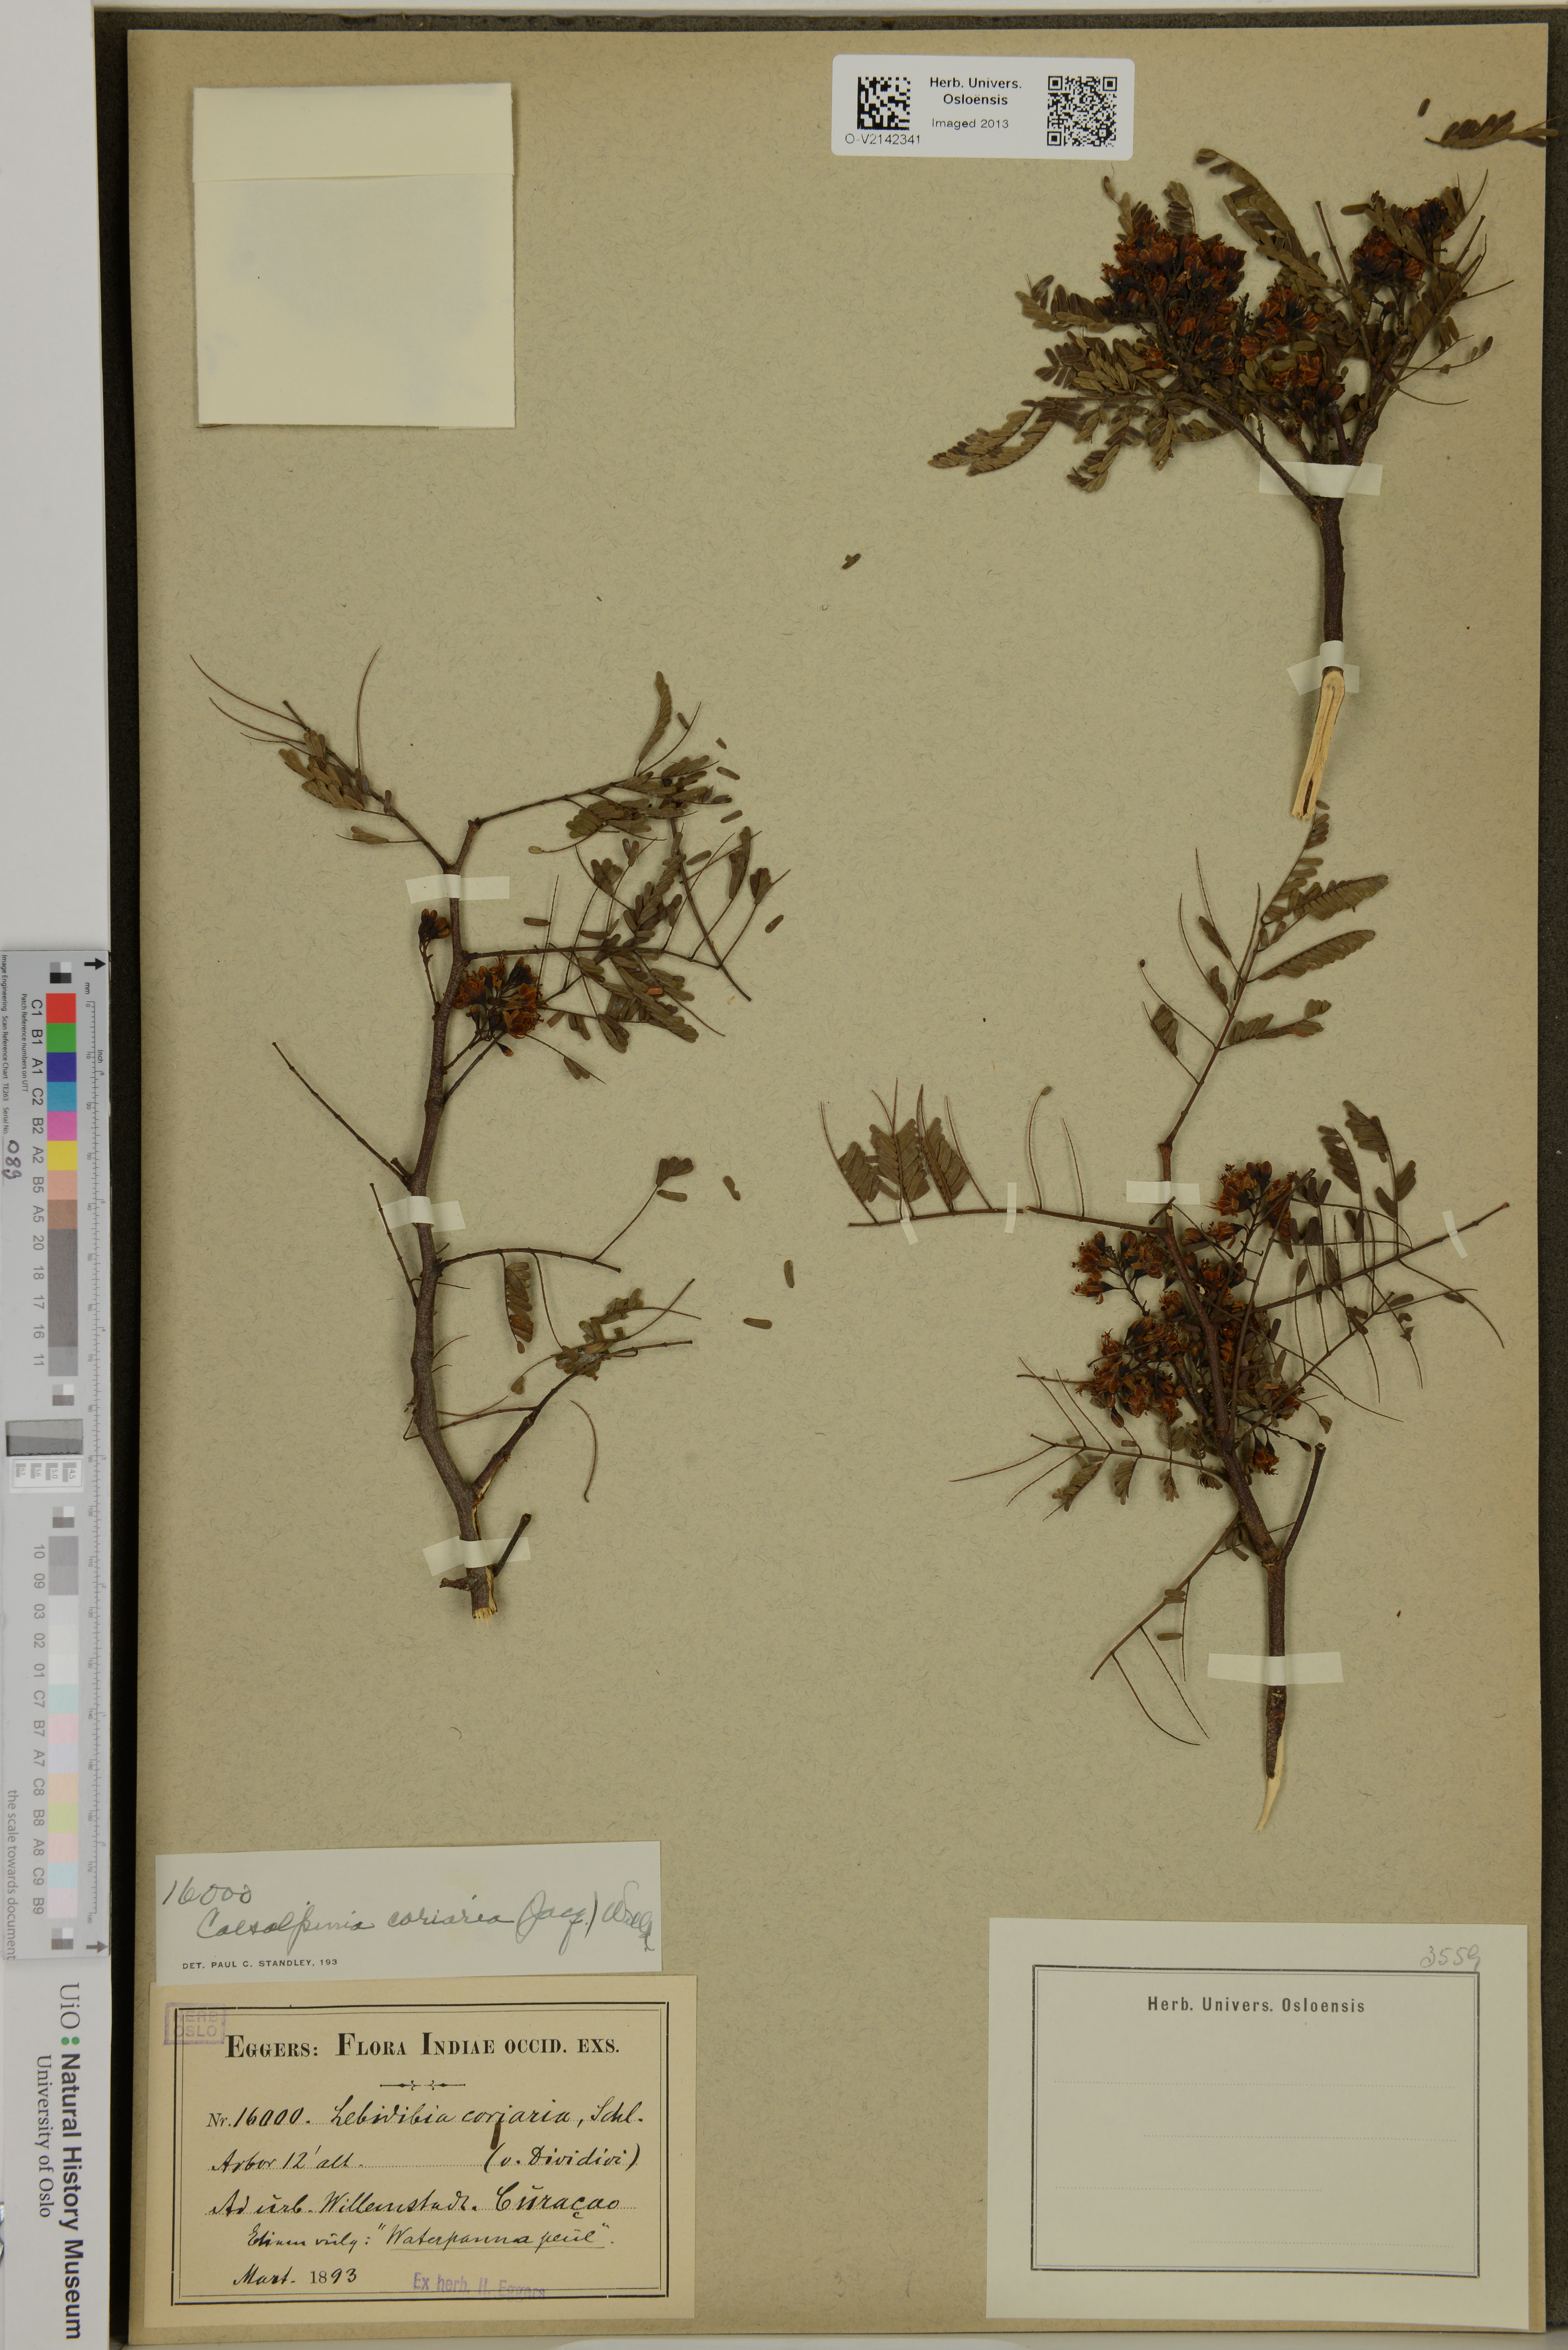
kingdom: Plantae
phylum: Tracheophyta
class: Magnoliopsida
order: Fabales
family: Fabaceae
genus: Caesalpinia
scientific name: Caesalpinia coriaria
